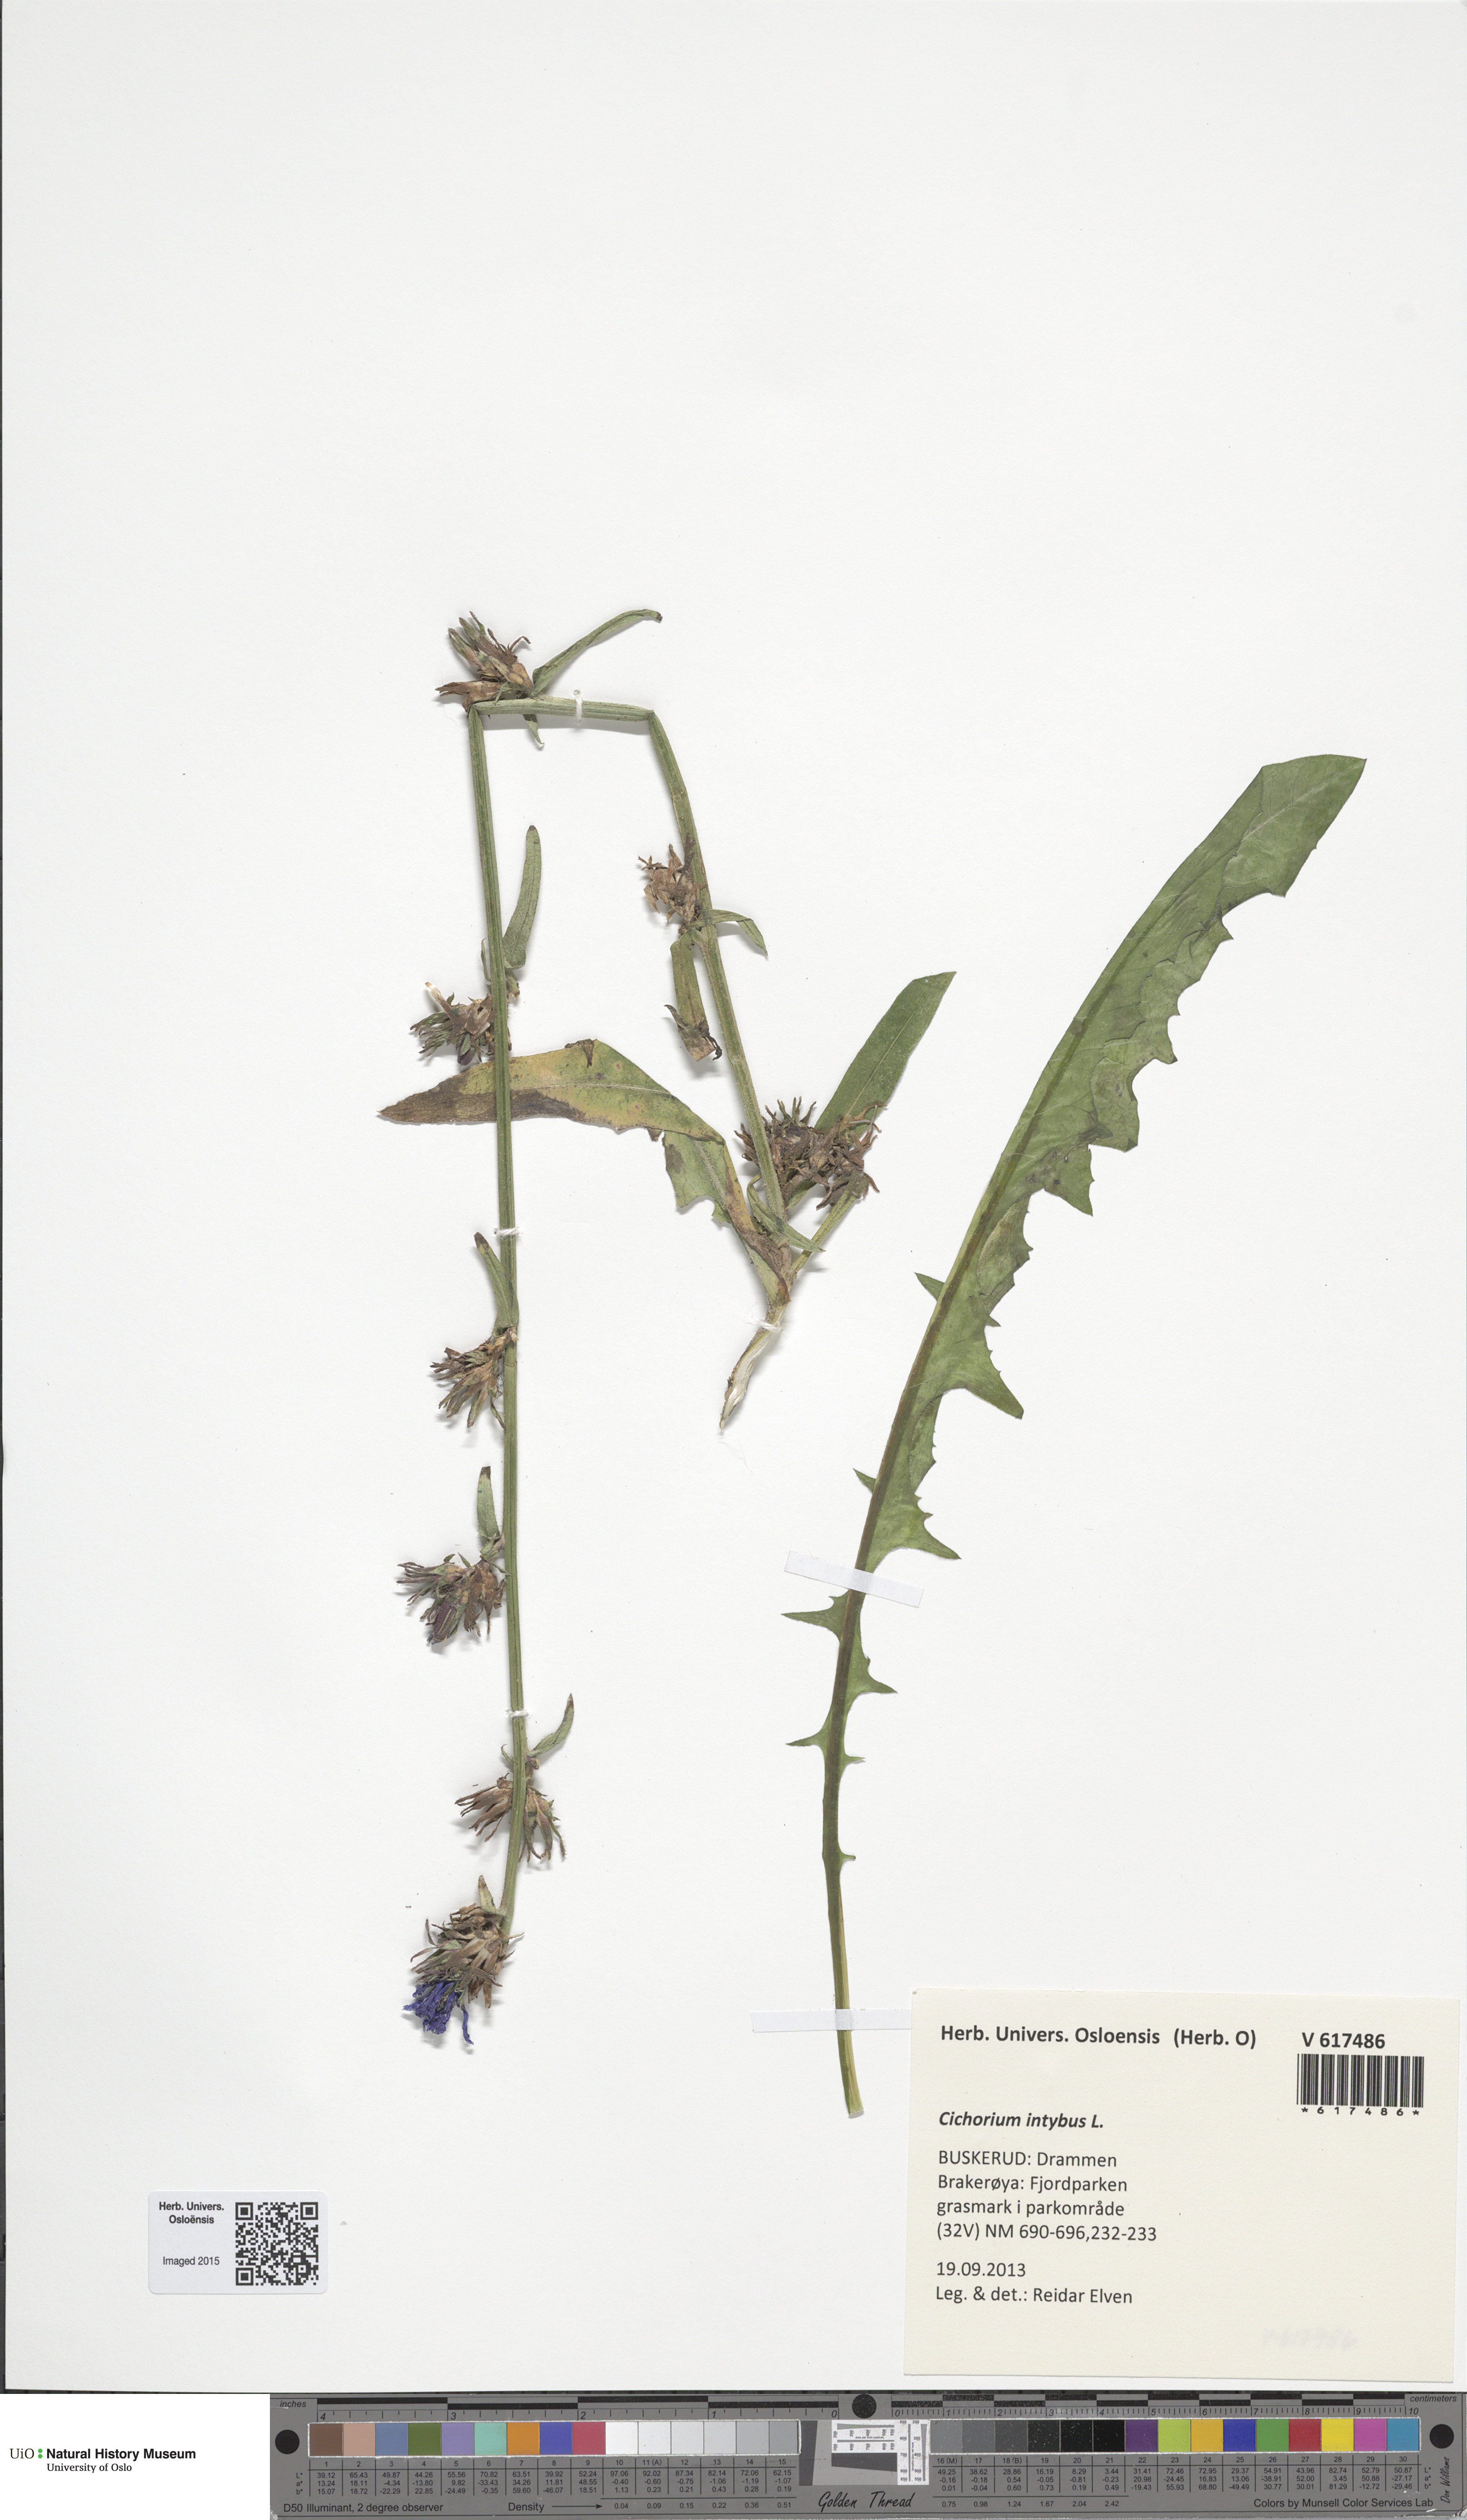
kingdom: Plantae
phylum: Tracheophyta
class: Magnoliopsida
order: Asterales
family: Asteraceae
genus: Cichorium
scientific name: Cichorium intybus
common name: Chicory
